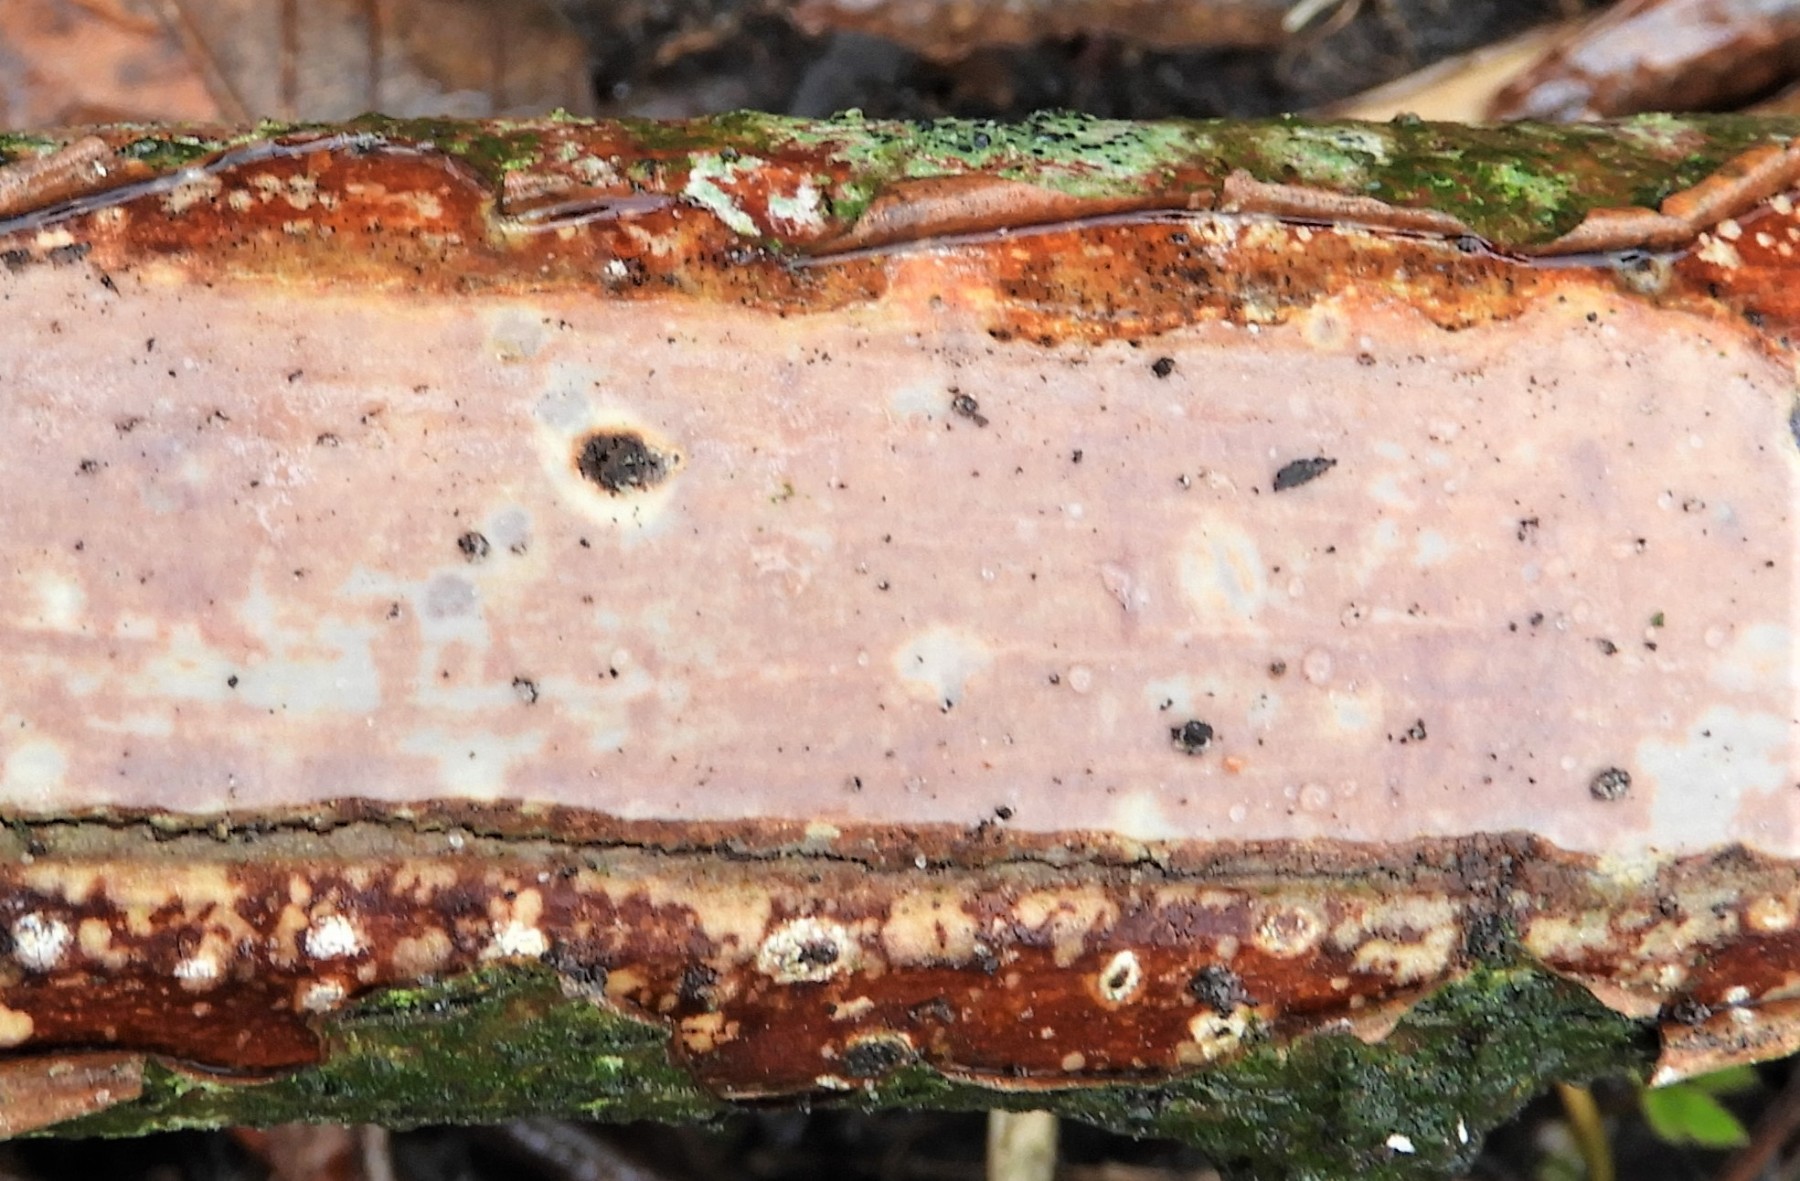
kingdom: Fungi
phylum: Basidiomycota
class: Agaricomycetes
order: Corticiales
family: Vuilleminiaceae
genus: Vuilleminia
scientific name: Vuilleminia comedens
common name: almindelig barksprænger
